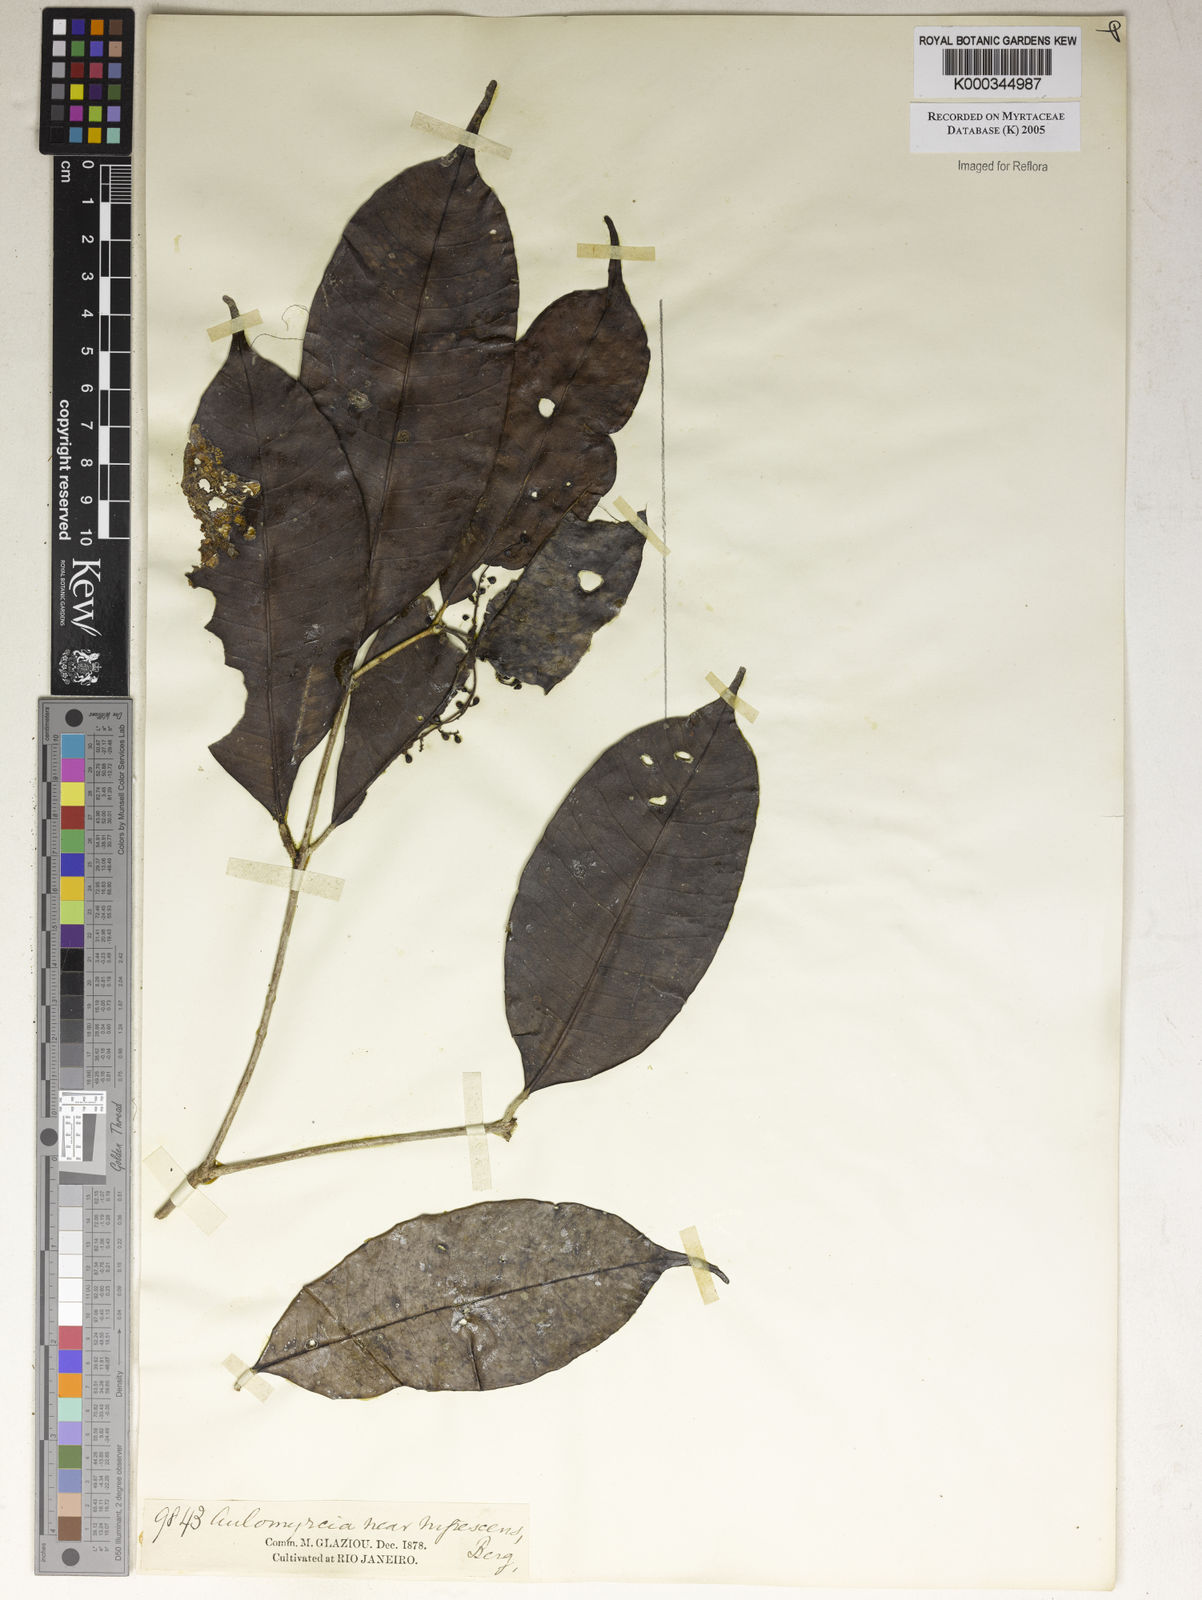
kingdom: Plantae
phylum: Tracheophyta
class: Magnoliopsida
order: Myrtales
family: Myrtaceae
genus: Myrcia
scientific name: Myrcia
